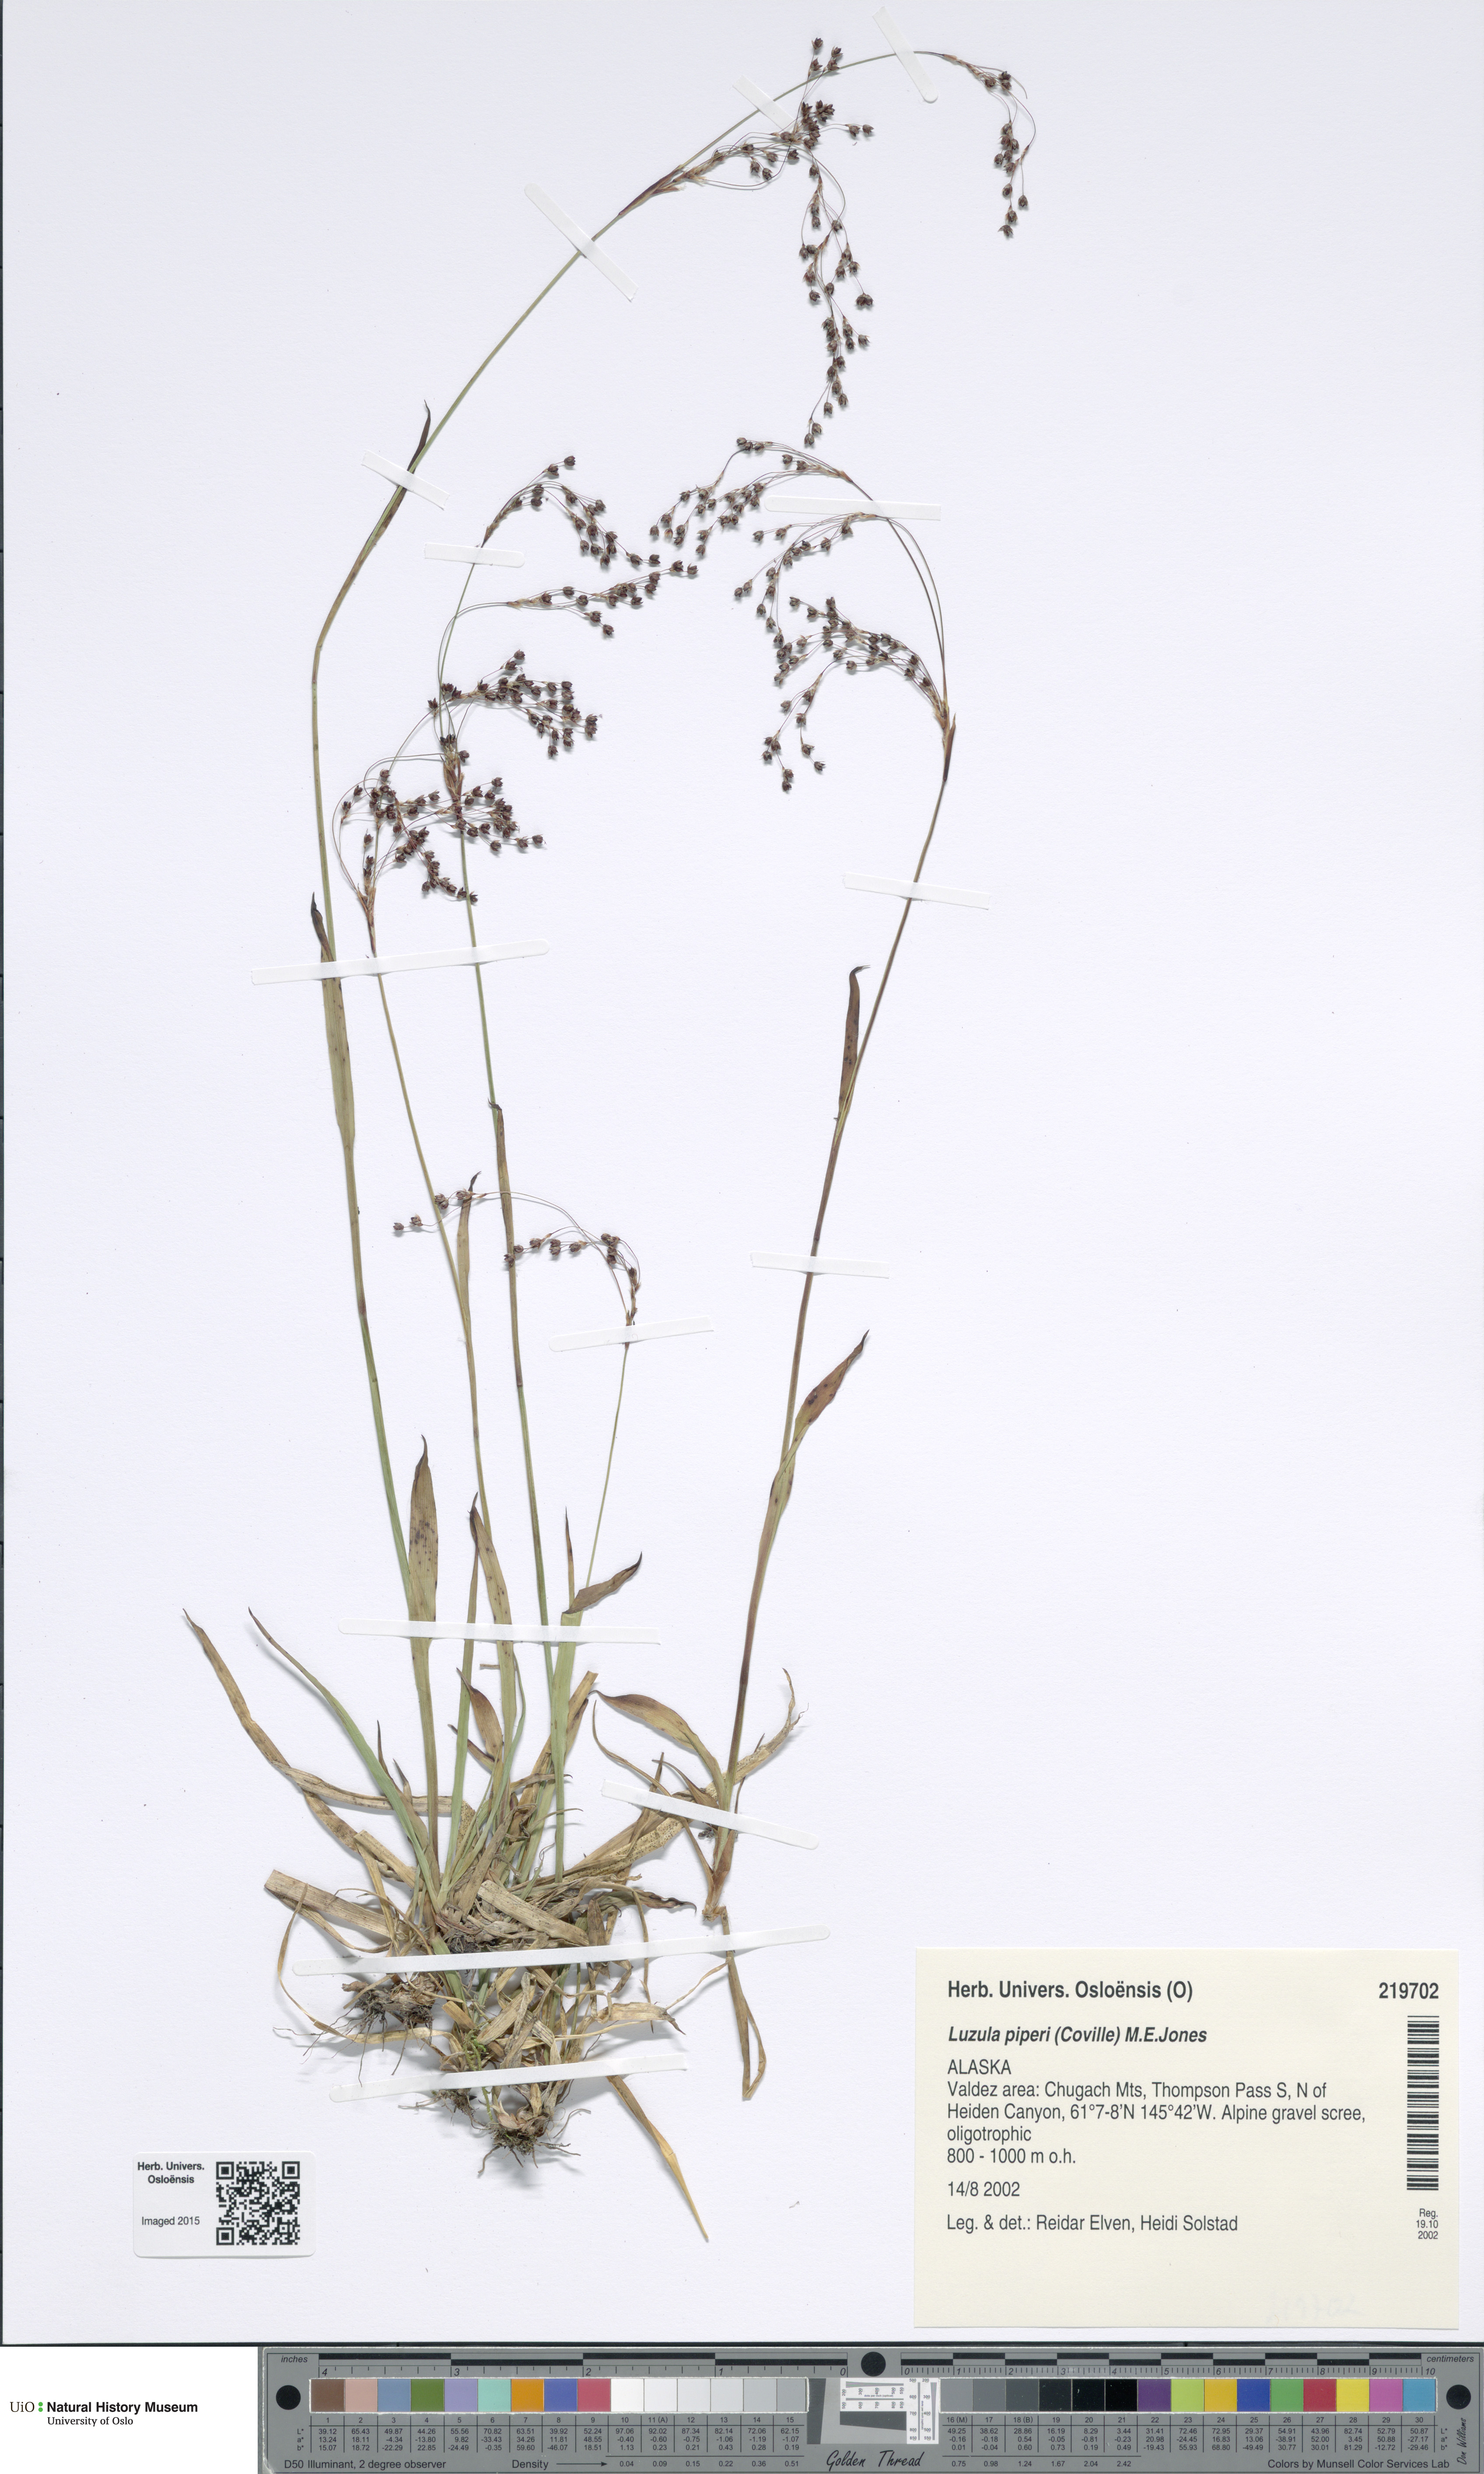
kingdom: Plantae
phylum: Tracheophyta
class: Liliopsida
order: Poales
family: Juncaceae
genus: Luzula
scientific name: Luzula piperi
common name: Piper's wood-rush
